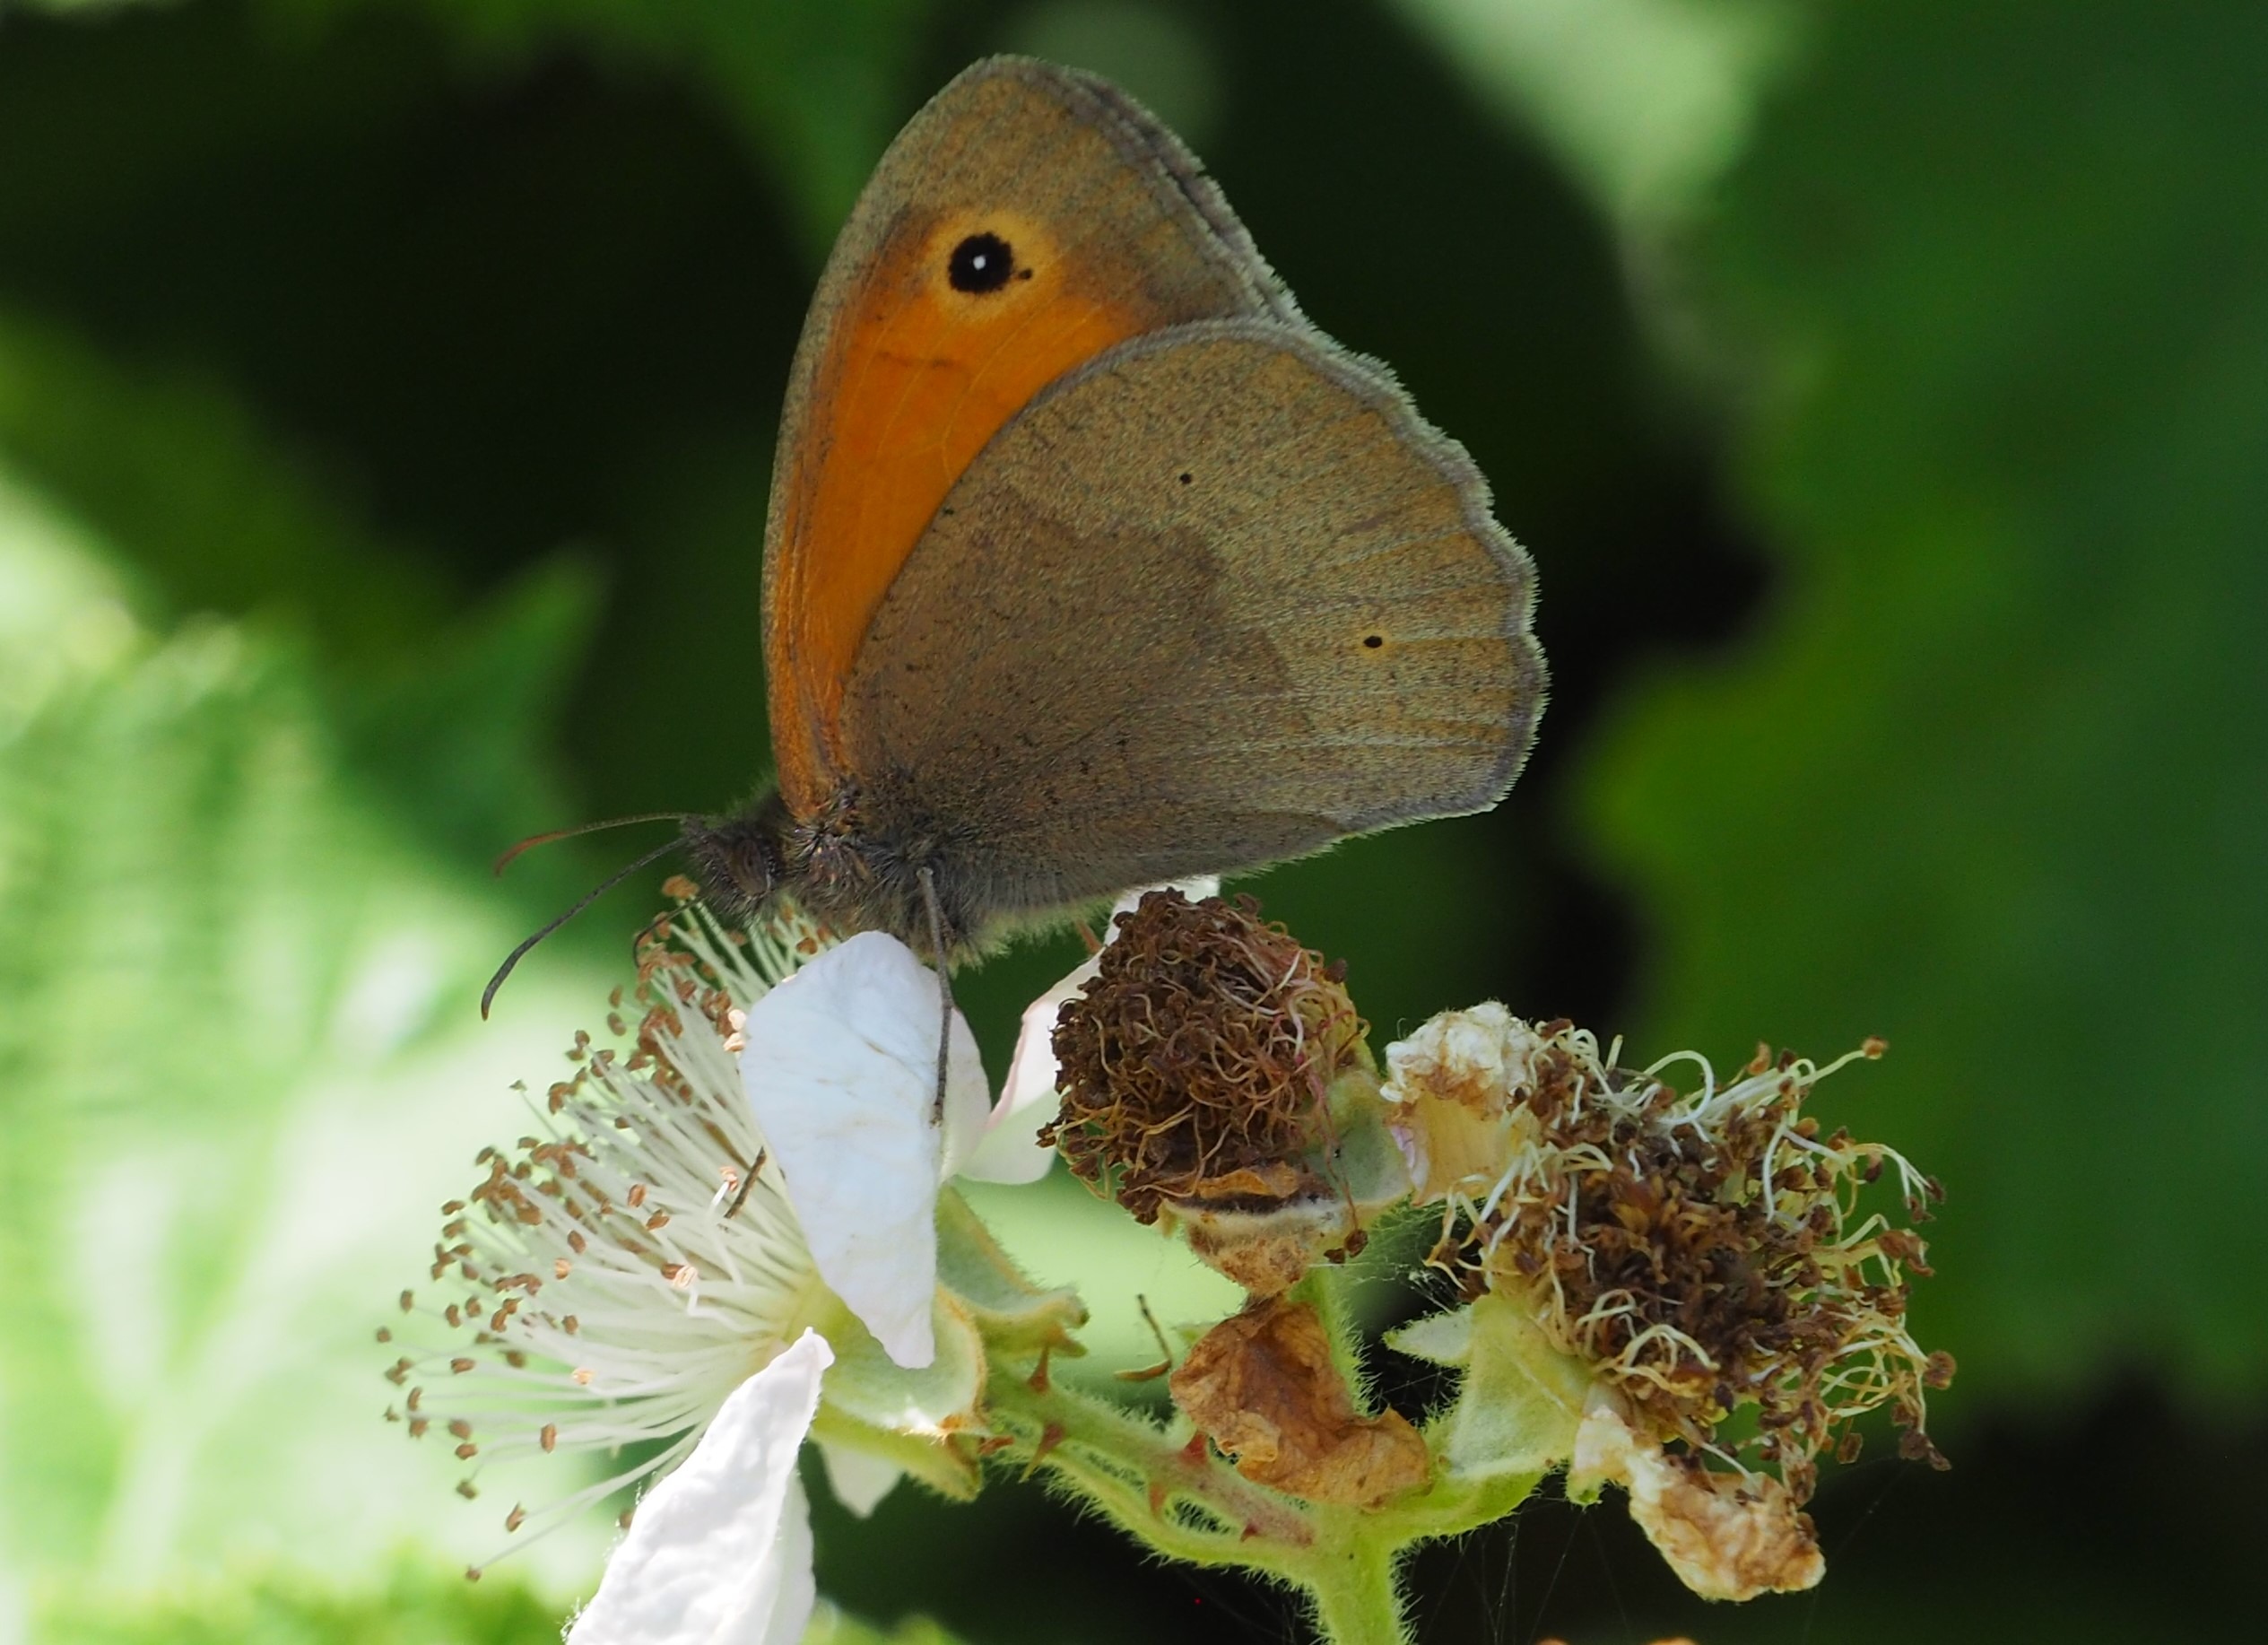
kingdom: Animalia
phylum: Arthropoda
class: Insecta
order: Lepidoptera
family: Nymphalidae
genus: Maniola
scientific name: Maniola jurtina
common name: Græsrandøje
